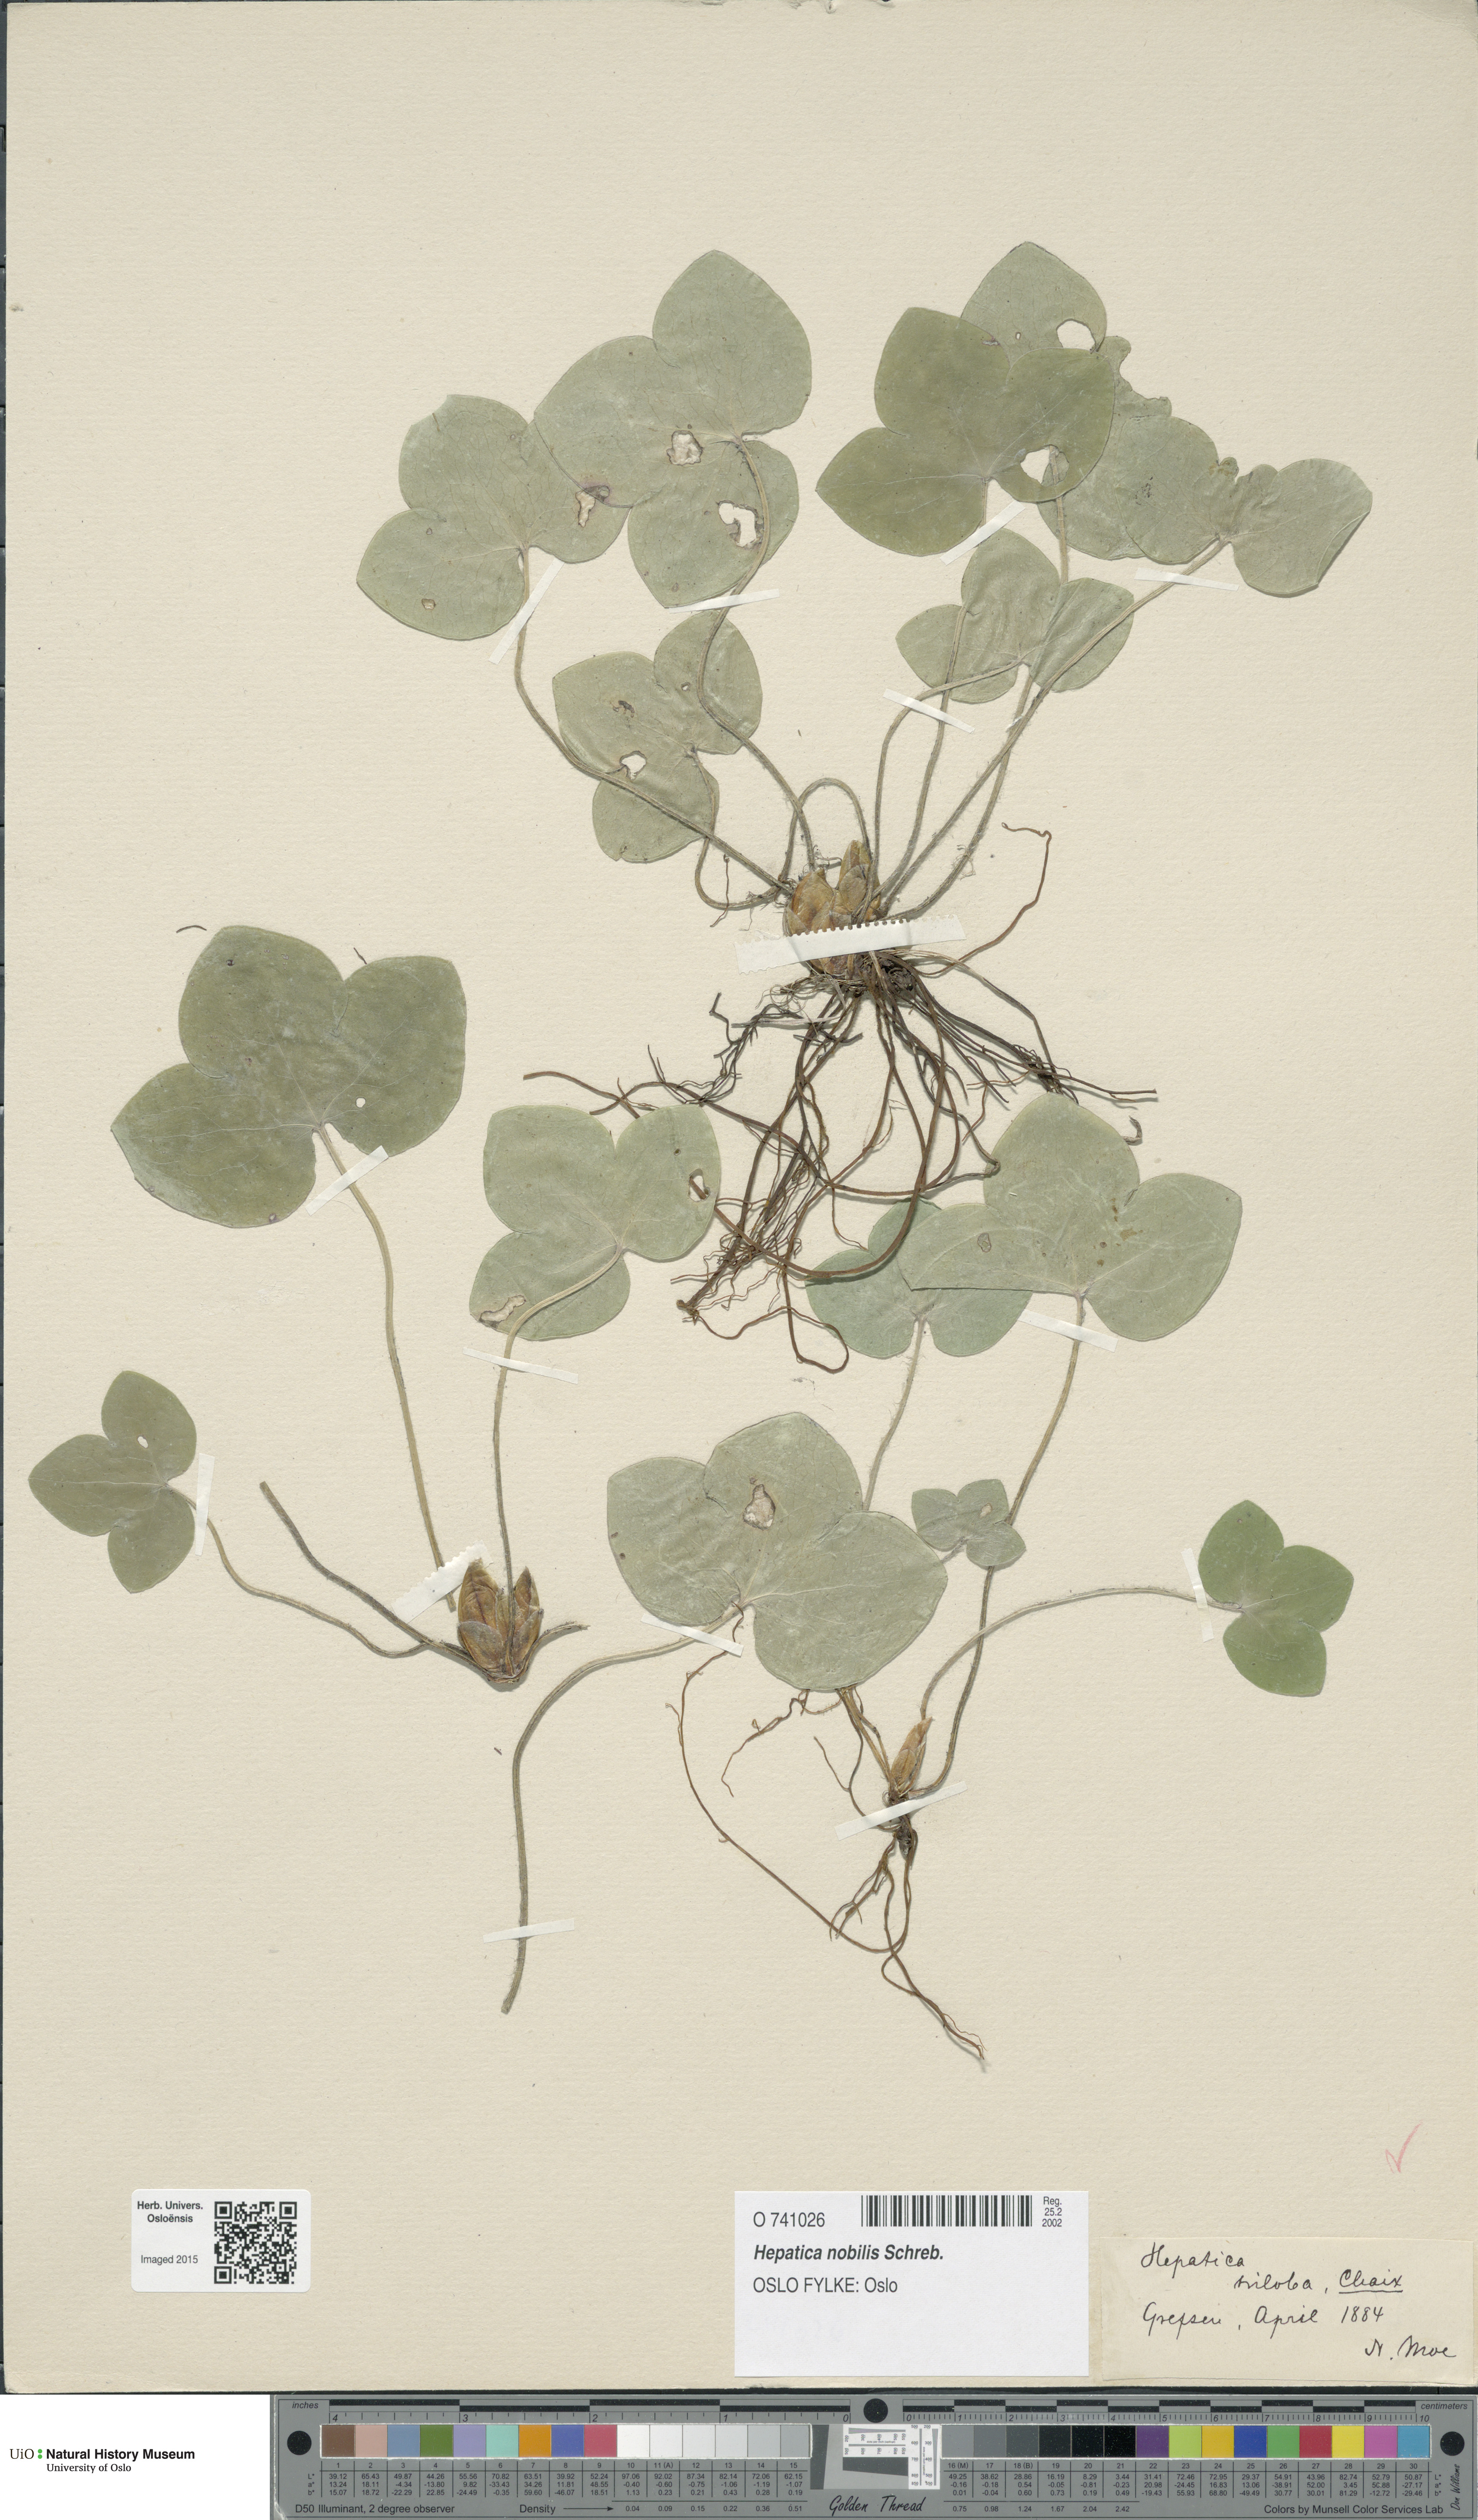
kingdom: Plantae
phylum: Tracheophyta
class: Magnoliopsida
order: Ranunculales
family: Ranunculaceae
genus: Hepatica
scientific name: Hepatica nobilis
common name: Liverleaf
